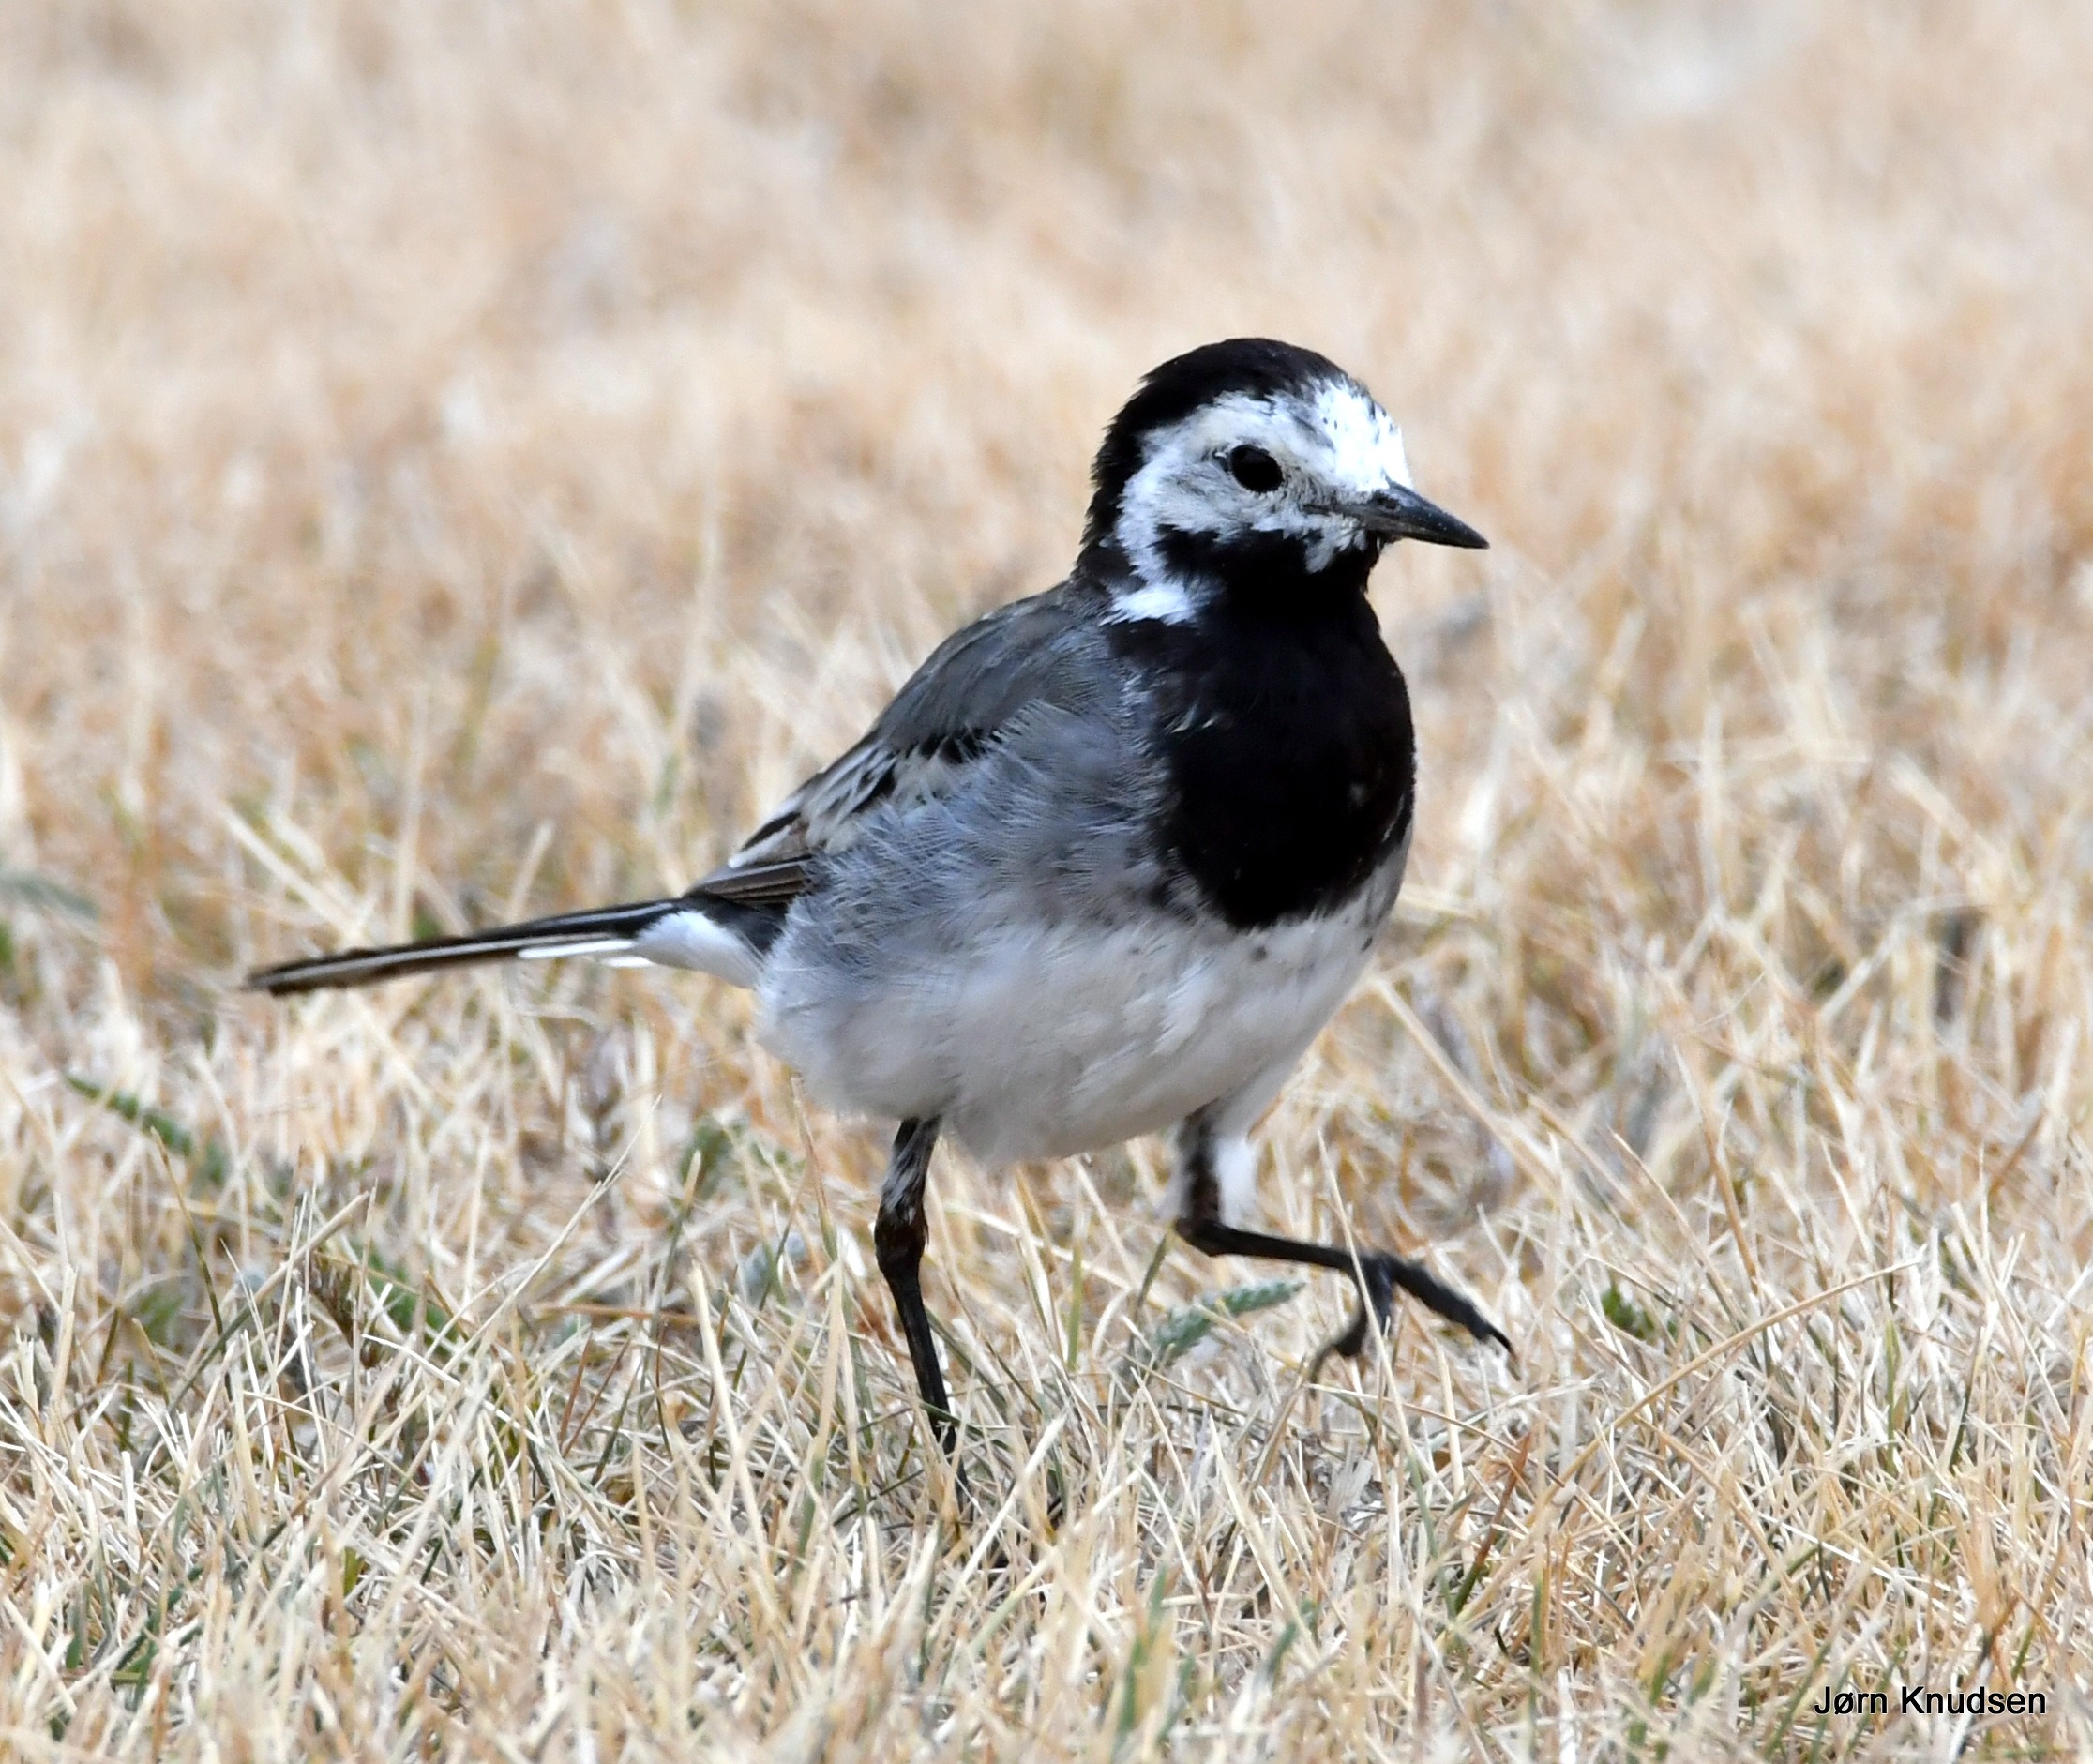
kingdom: Animalia
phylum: Chordata
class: Aves
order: Passeriformes
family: Motacillidae
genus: Motacilla
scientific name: Motacilla alba
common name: Hvid vipstjert
